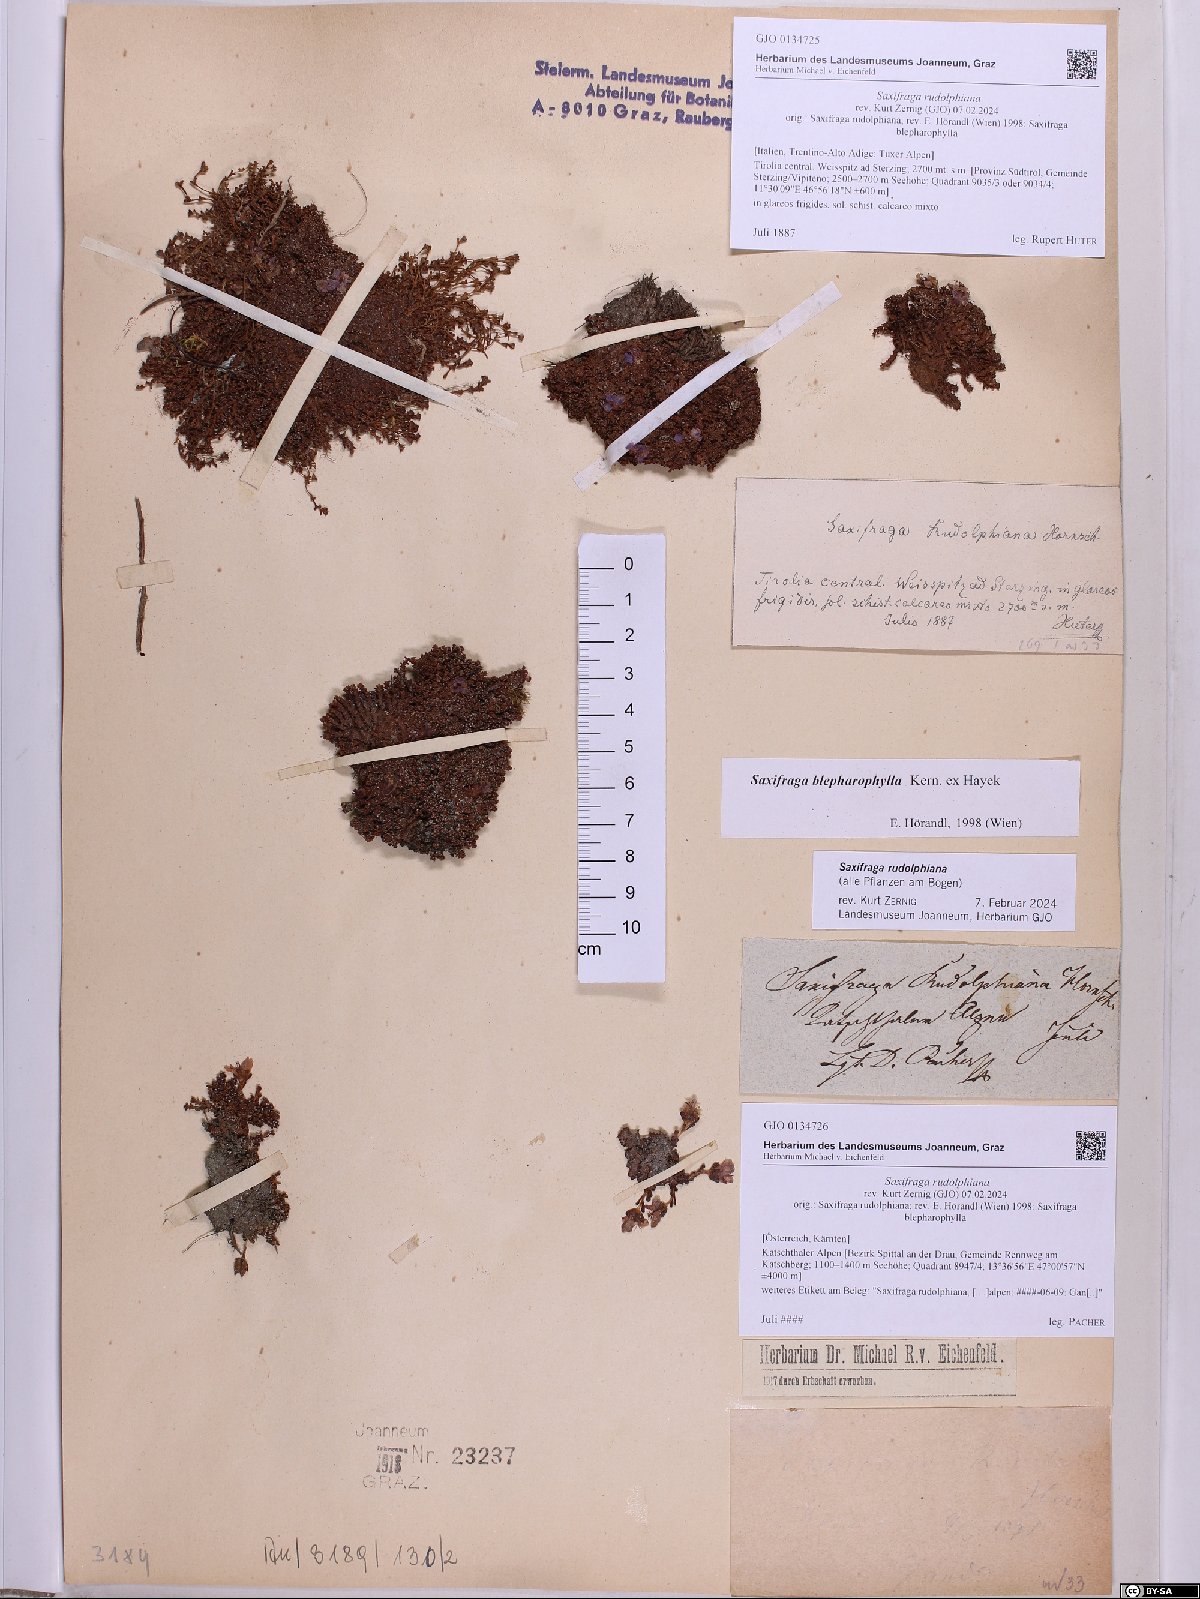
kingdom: Plantae
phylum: Tracheophyta
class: Magnoliopsida
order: Saxifragales
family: Saxifragaceae
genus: Saxifraga
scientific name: Saxifraga oppositifolia
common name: Purple saxifrage
